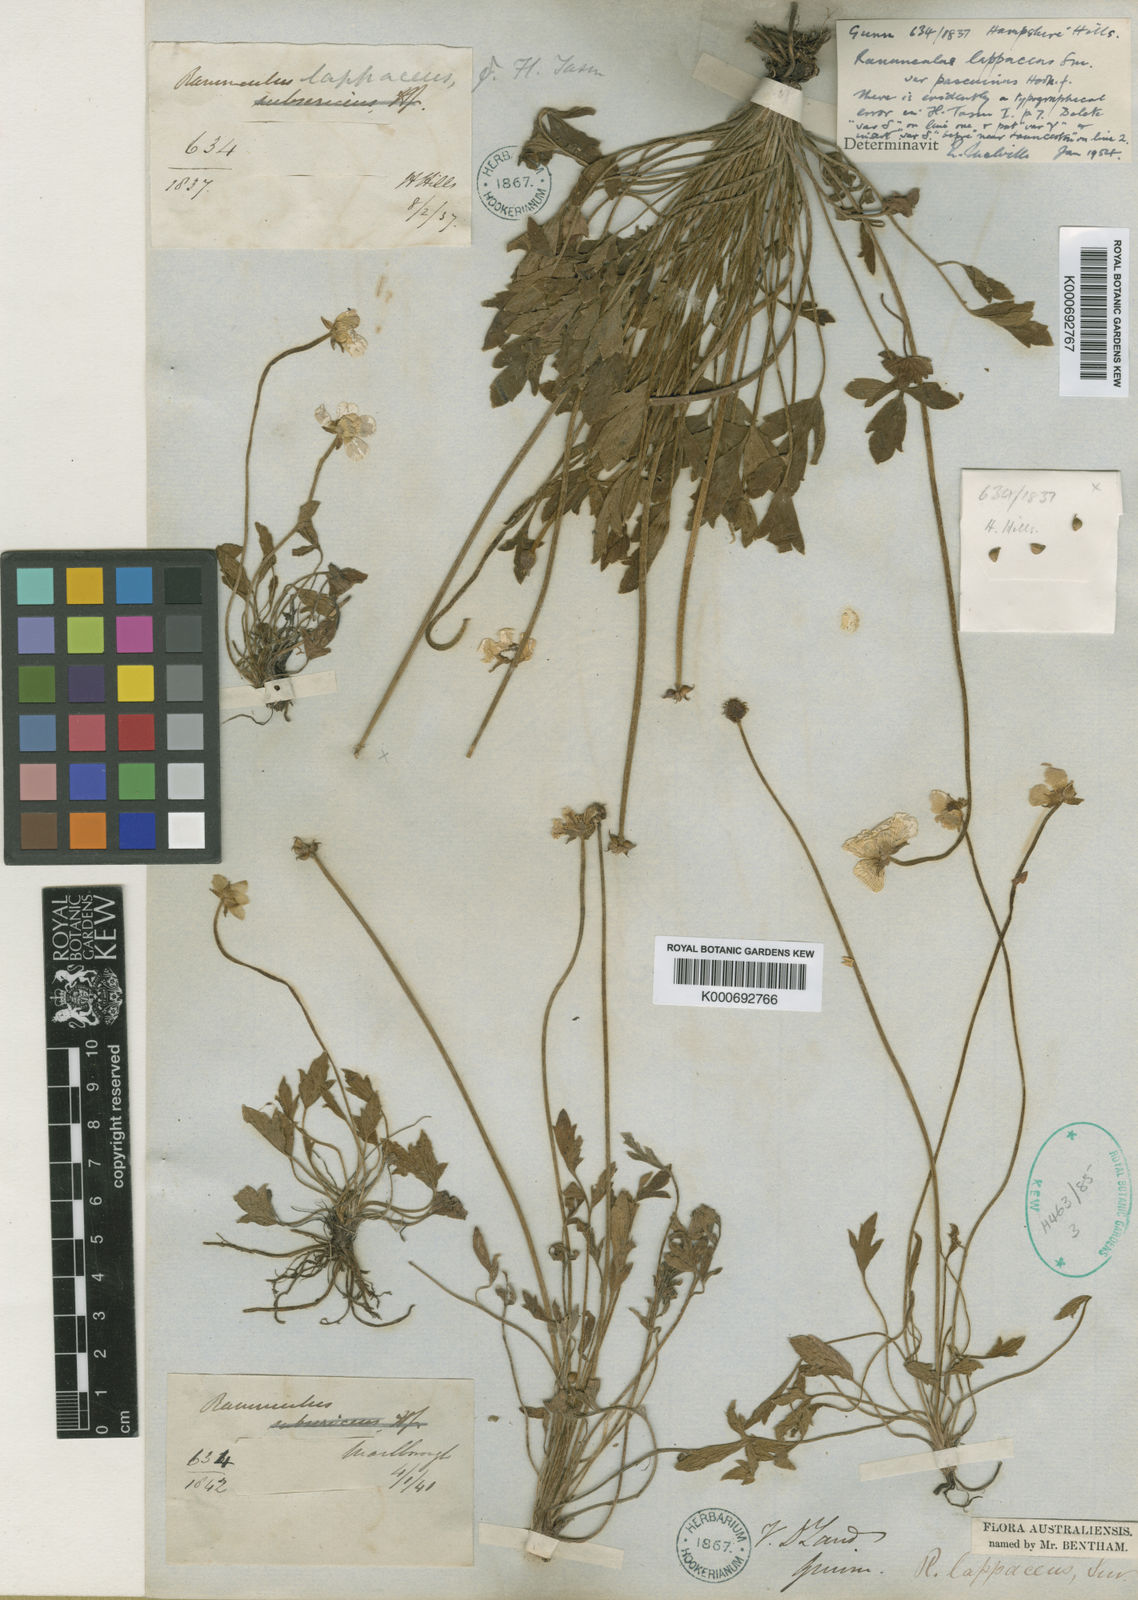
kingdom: Plantae
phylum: Tracheophyta
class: Magnoliopsida
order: Ranunculales
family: Ranunculaceae
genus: Ranunculus
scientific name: Ranunculus pascuinus
